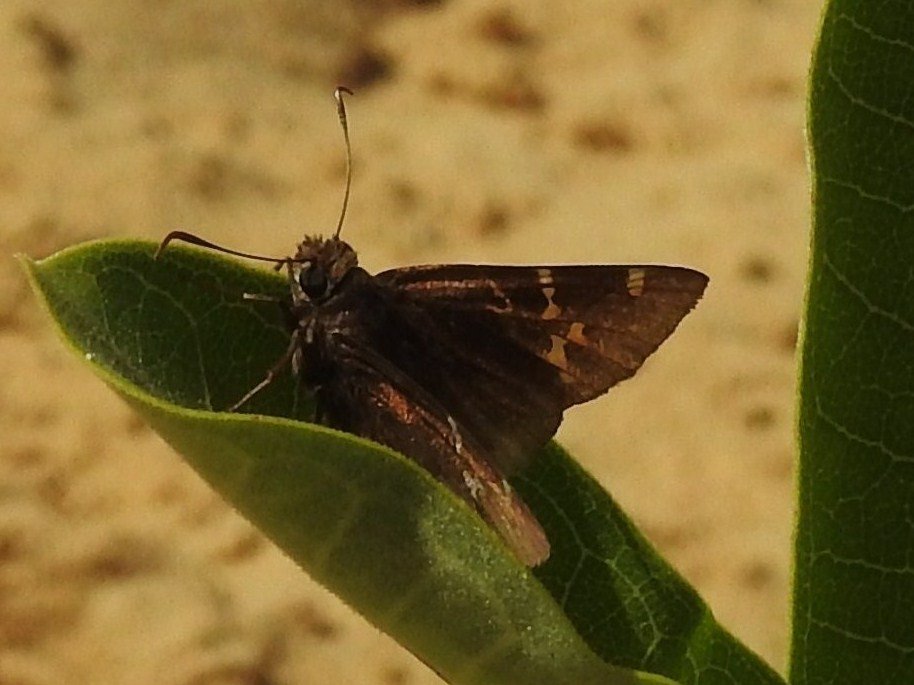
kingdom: Animalia
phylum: Arthropoda
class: Insecta
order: Lepidoptera
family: Hesperiidae
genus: Autochton
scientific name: Autochton
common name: Southern Cloudywing
